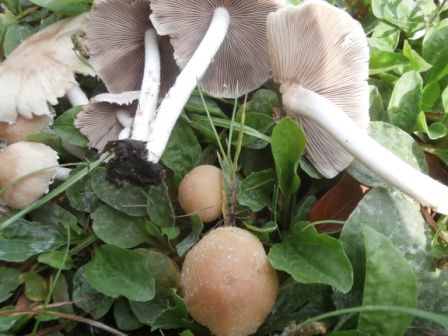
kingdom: Fungi
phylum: Basidiomycota
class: Agaricomycetes
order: Agaricales
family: Psathyrellaceae
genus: Psathyrella
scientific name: Psathyrella piluliformis
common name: lysstokket mørkhat
